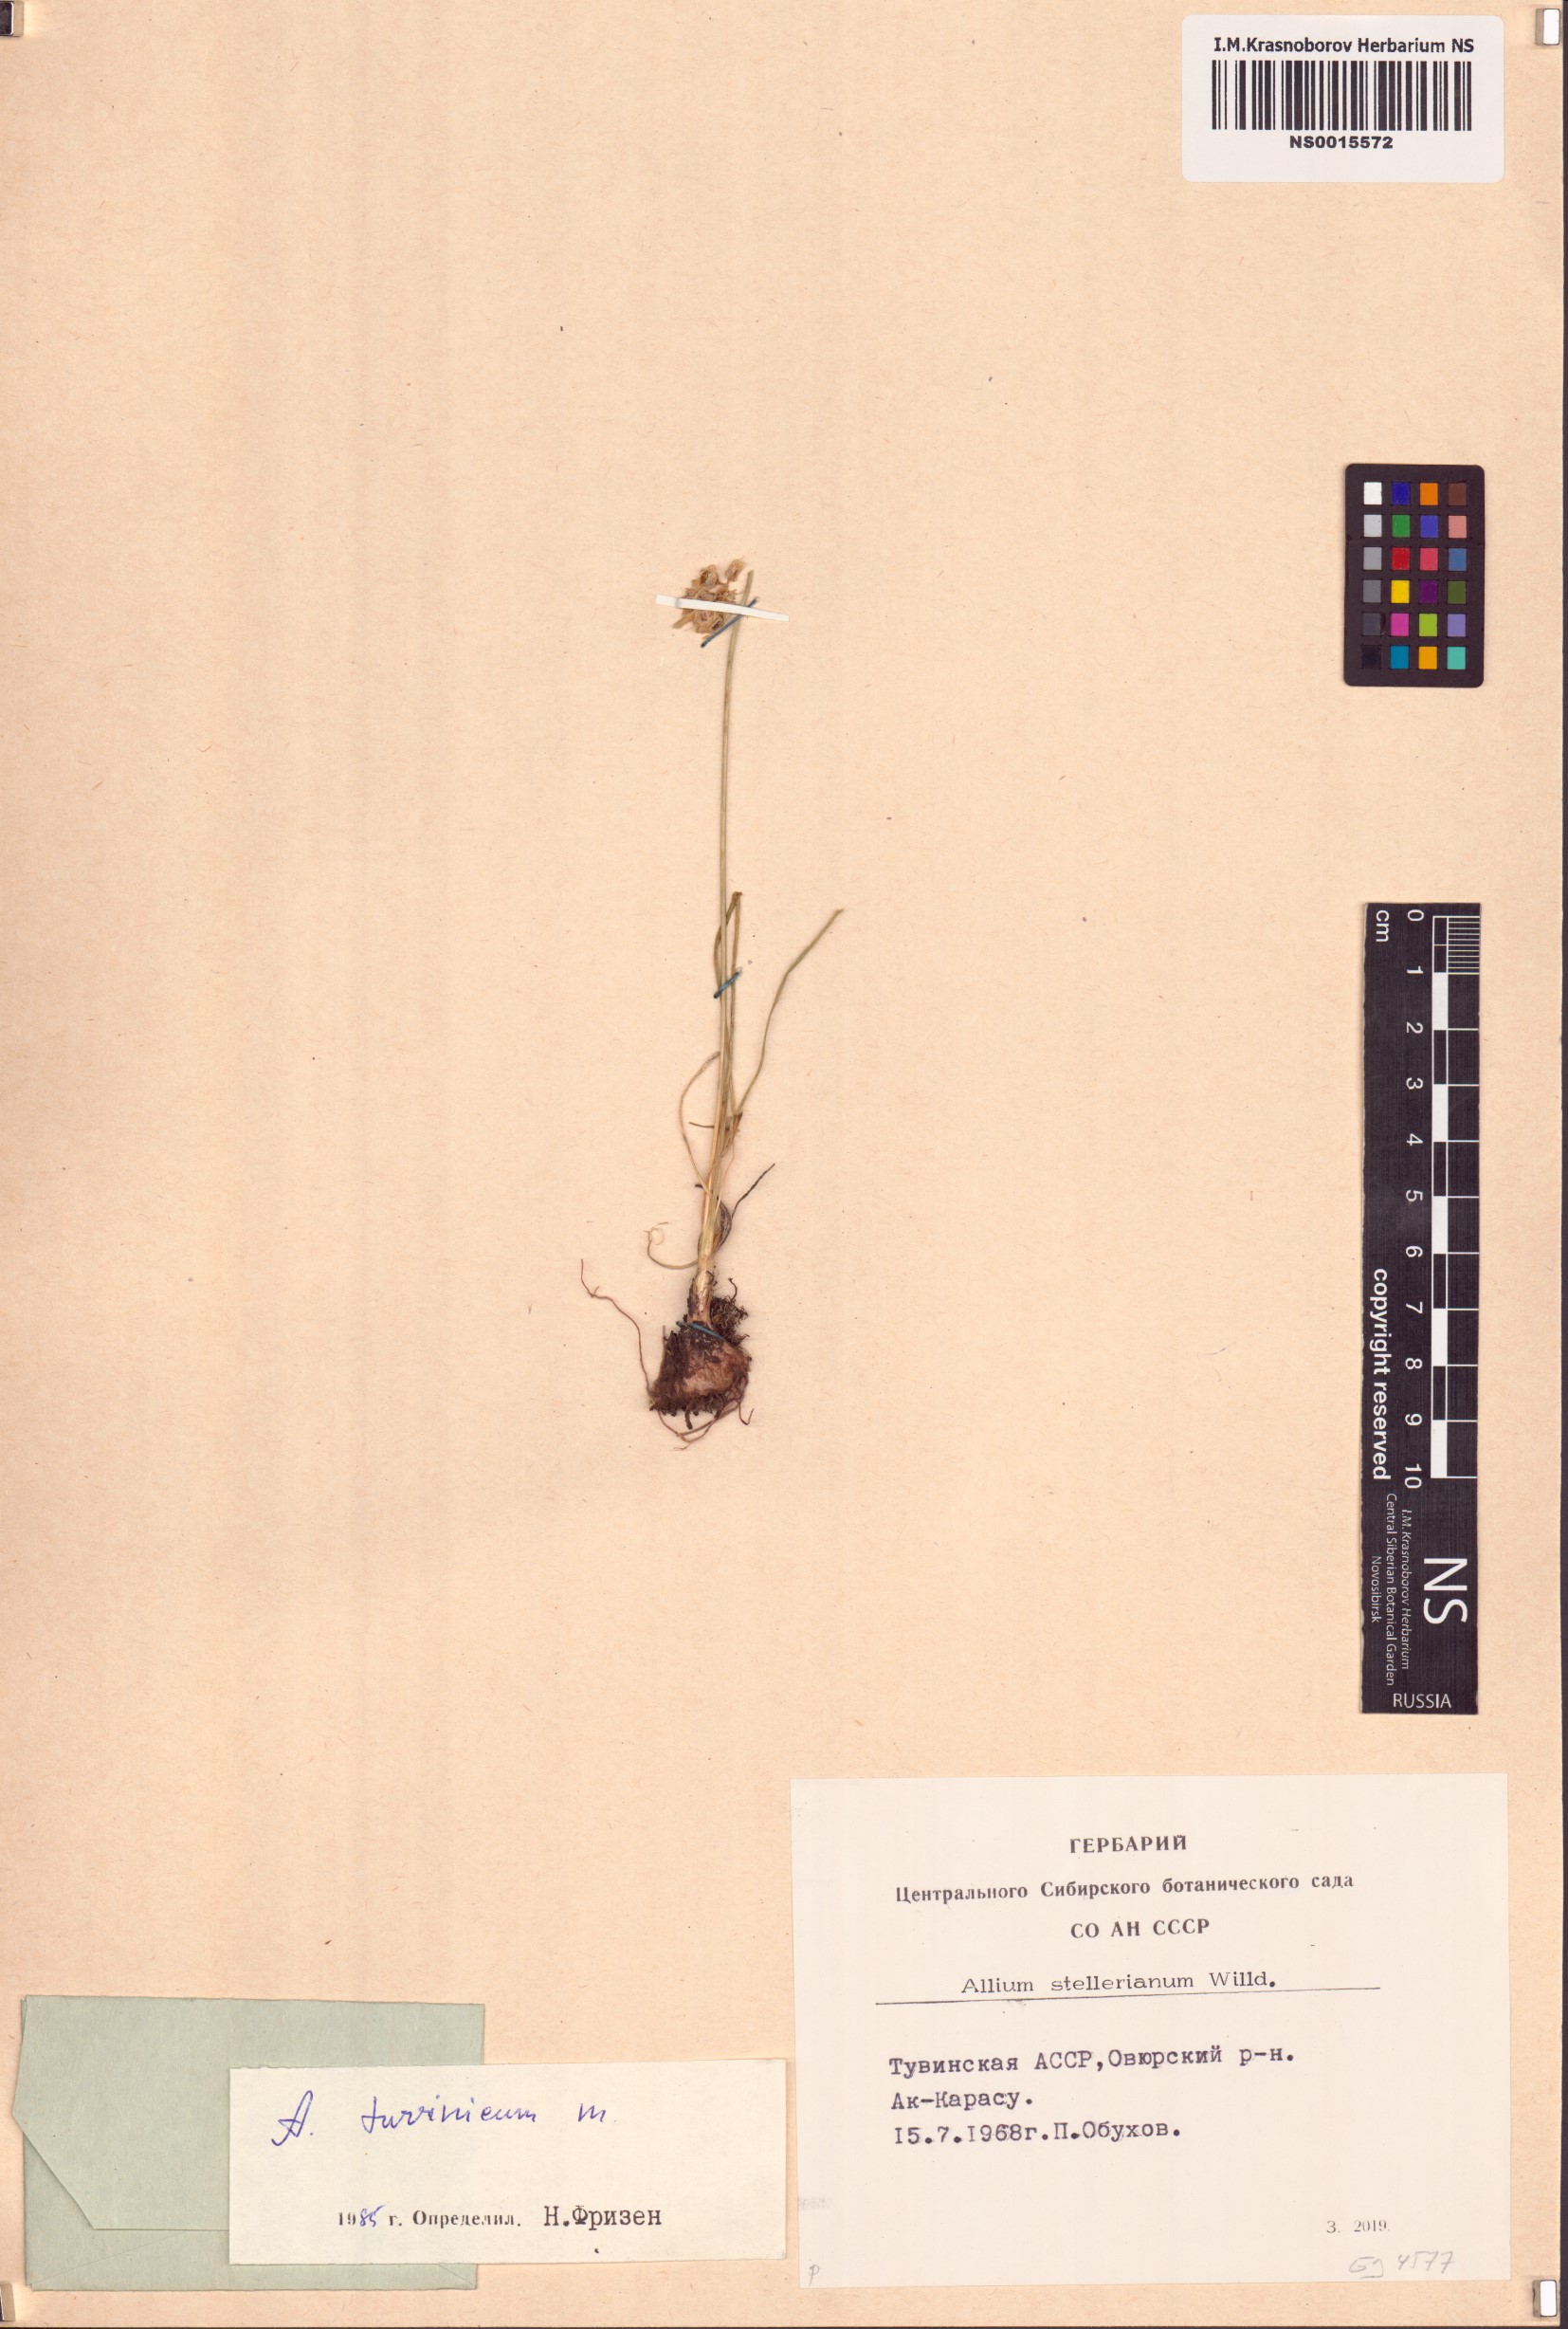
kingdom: Plantae
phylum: Tracheophyta
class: Liliopsida
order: Asparagales
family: Amaryllidaceae
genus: Allium
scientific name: Allium tuvinicum
